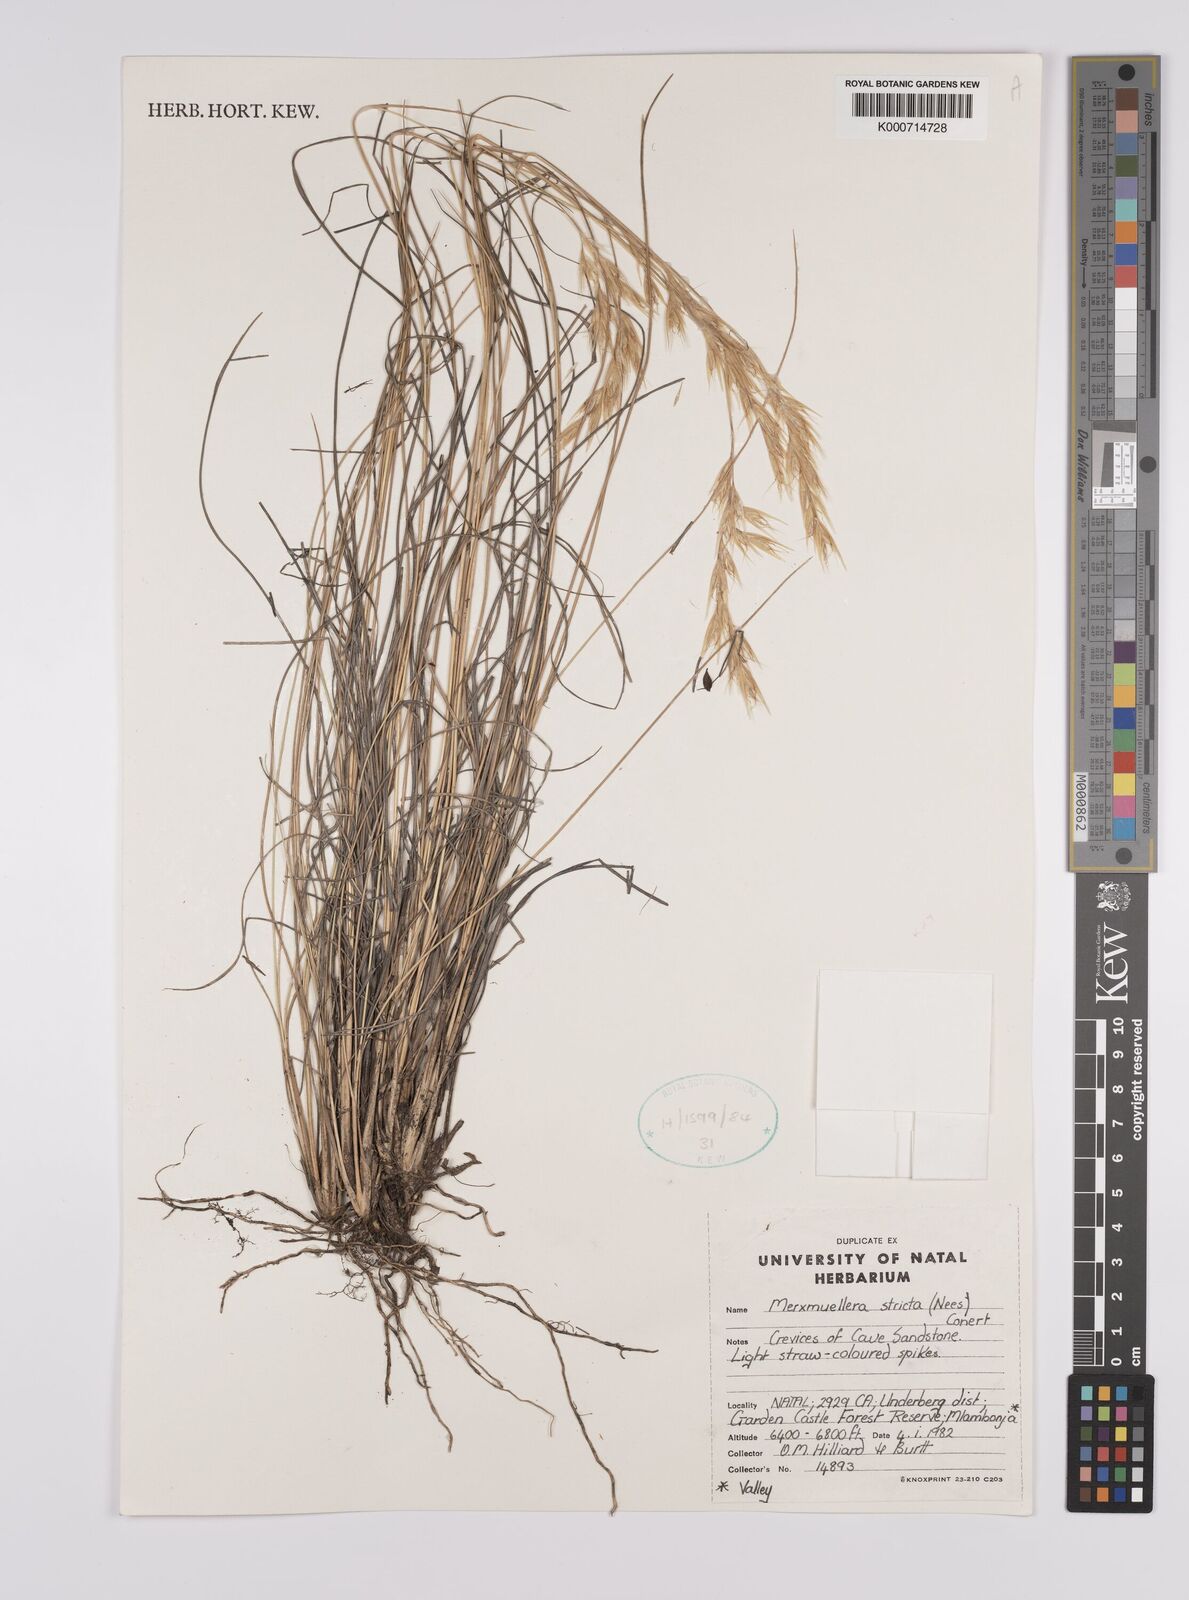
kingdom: Plantae
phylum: Tracheophyta
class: Liliopsida
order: Poales
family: Poaceae
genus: Rytidosperma
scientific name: Rytidosperma
